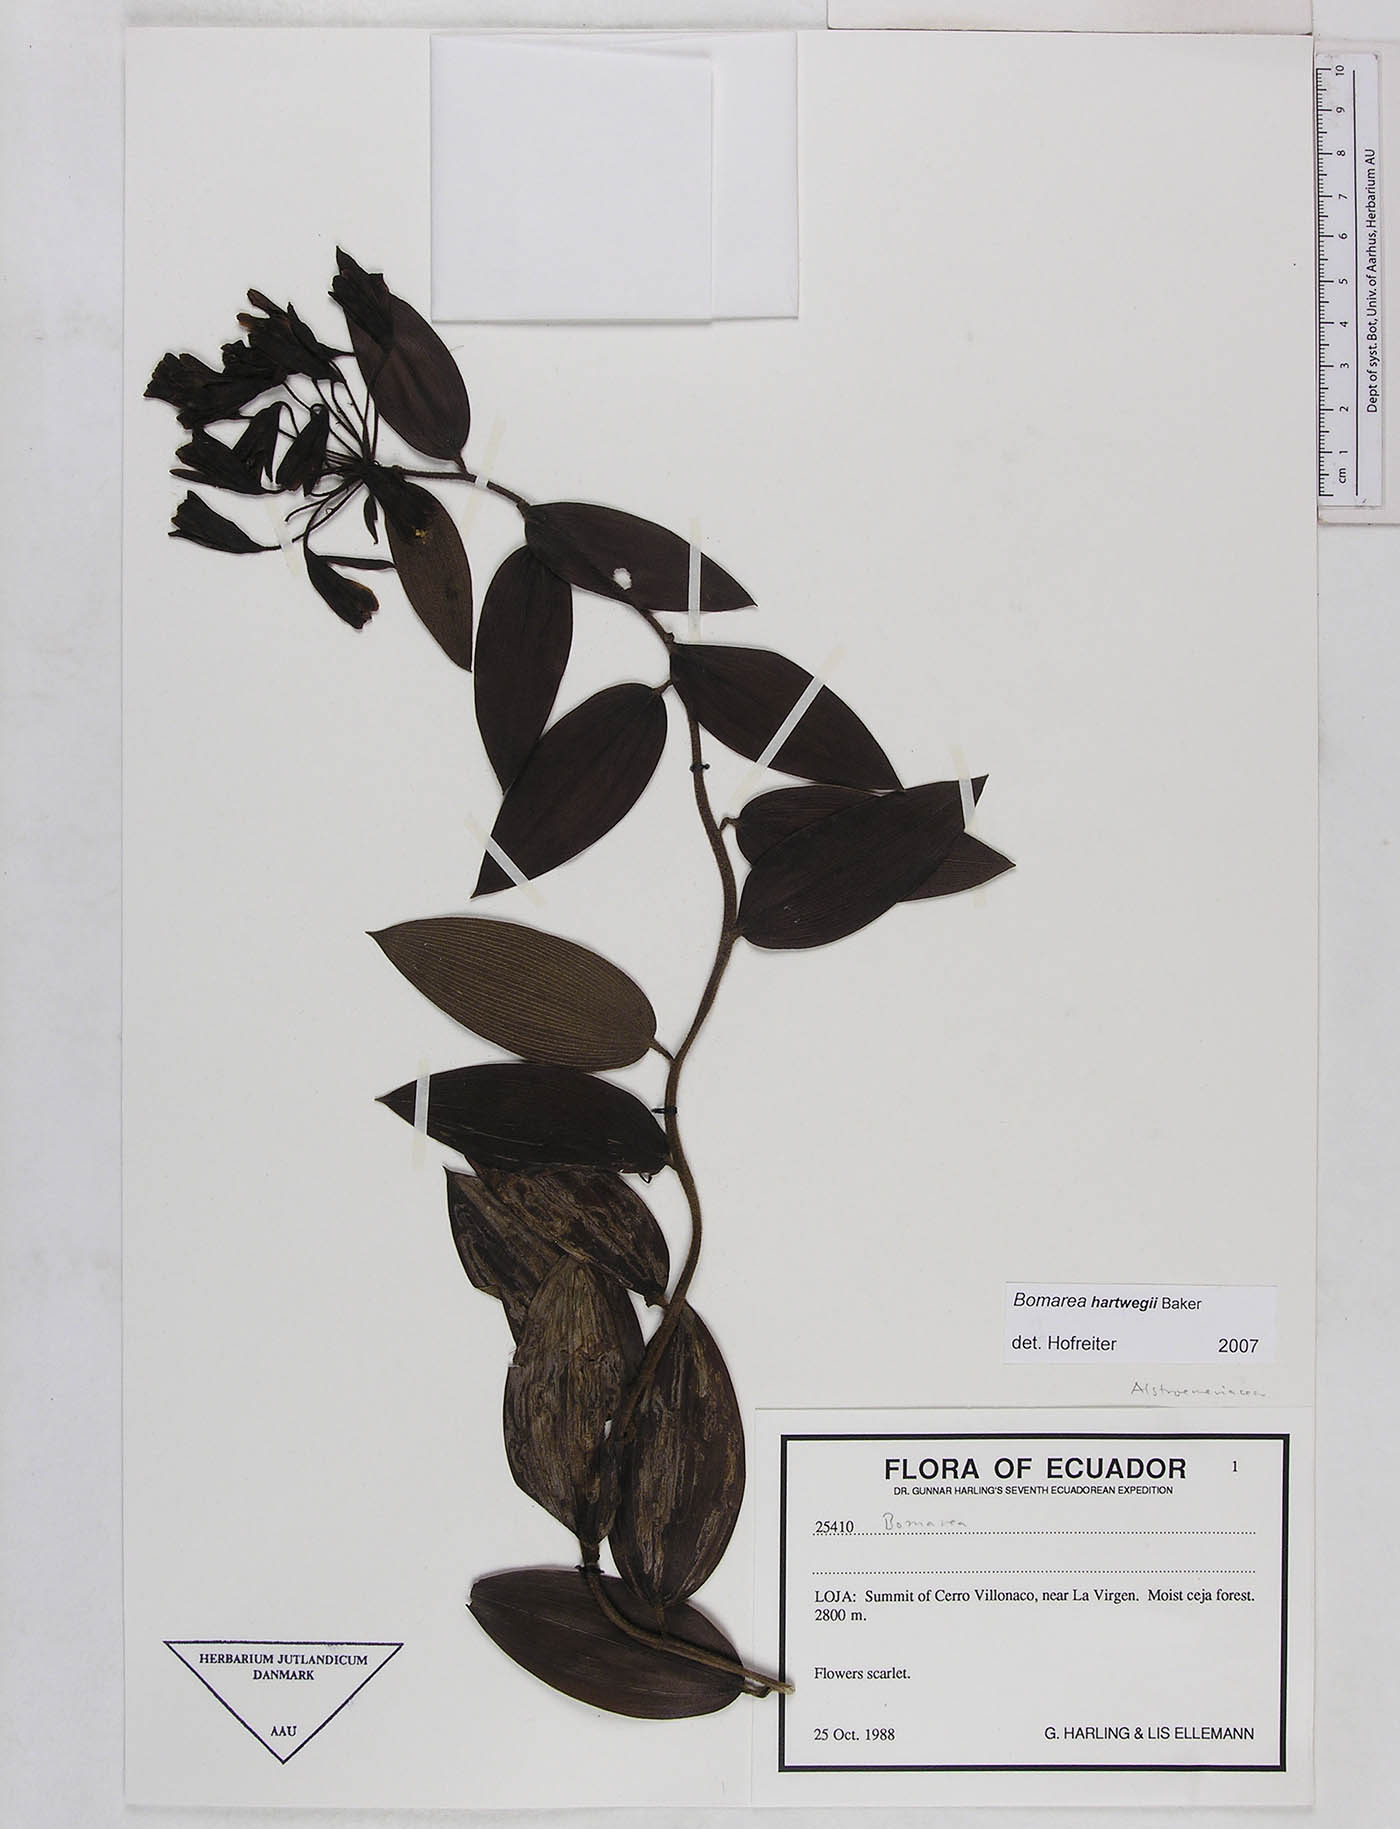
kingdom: Plantae
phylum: Tracheophyta
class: Liliopsida
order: Liliales
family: Alstroemeriaceae
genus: Bomarea
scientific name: Bomarea hartwegii
